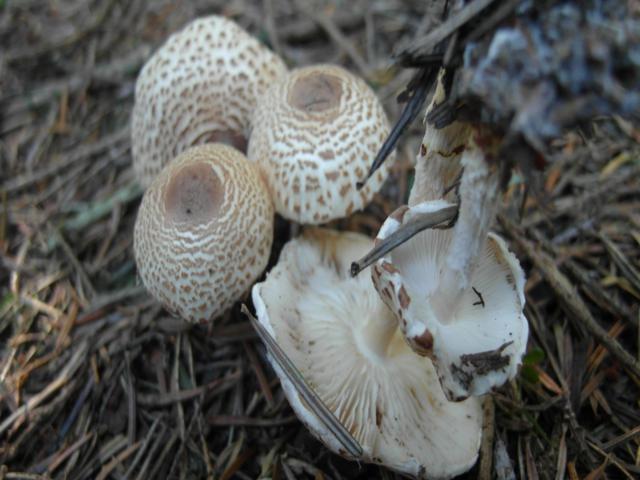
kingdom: Fungi
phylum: Basidiomycota
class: Agaricomycetes
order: Agaricales
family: Agaricaceae
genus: Lepiota
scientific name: Lepiota magnispora
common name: gulfnugget parasolhat
